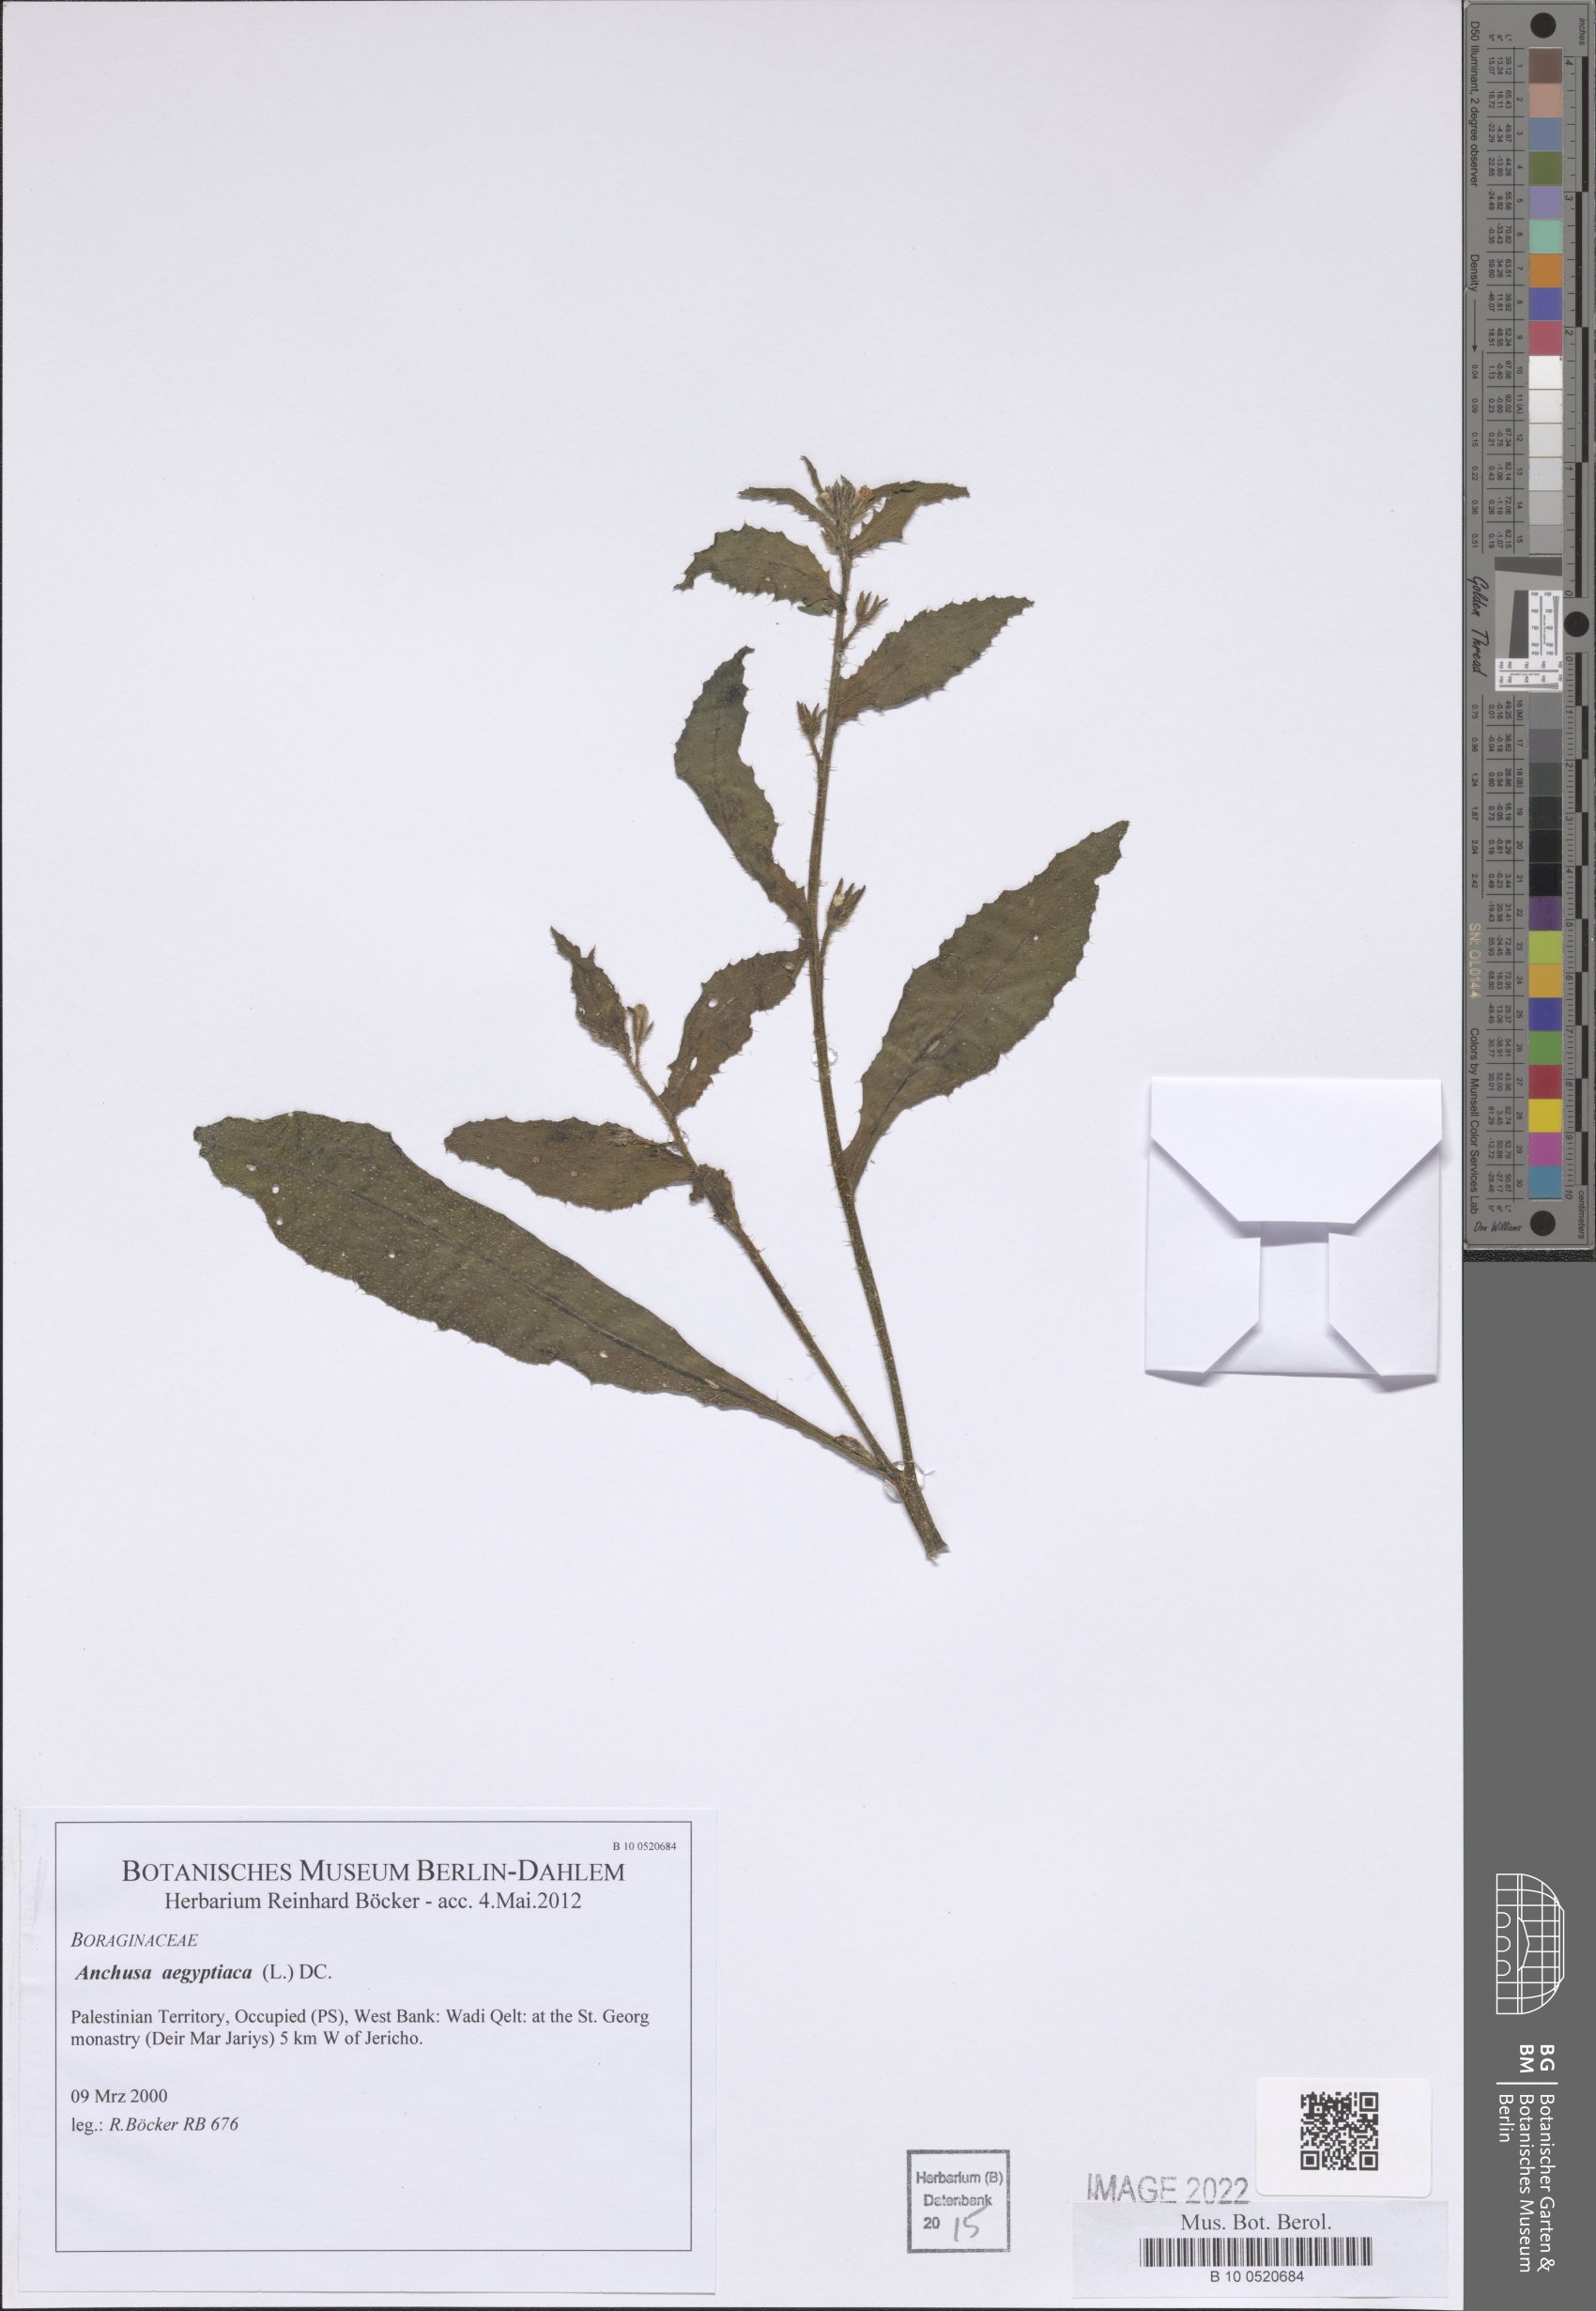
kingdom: Plantae
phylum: Tracheophyta
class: Magnoliopsida
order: Boraginales
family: Boraginaceae
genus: Lycopsis
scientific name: Lycopsis aegyptiaca
